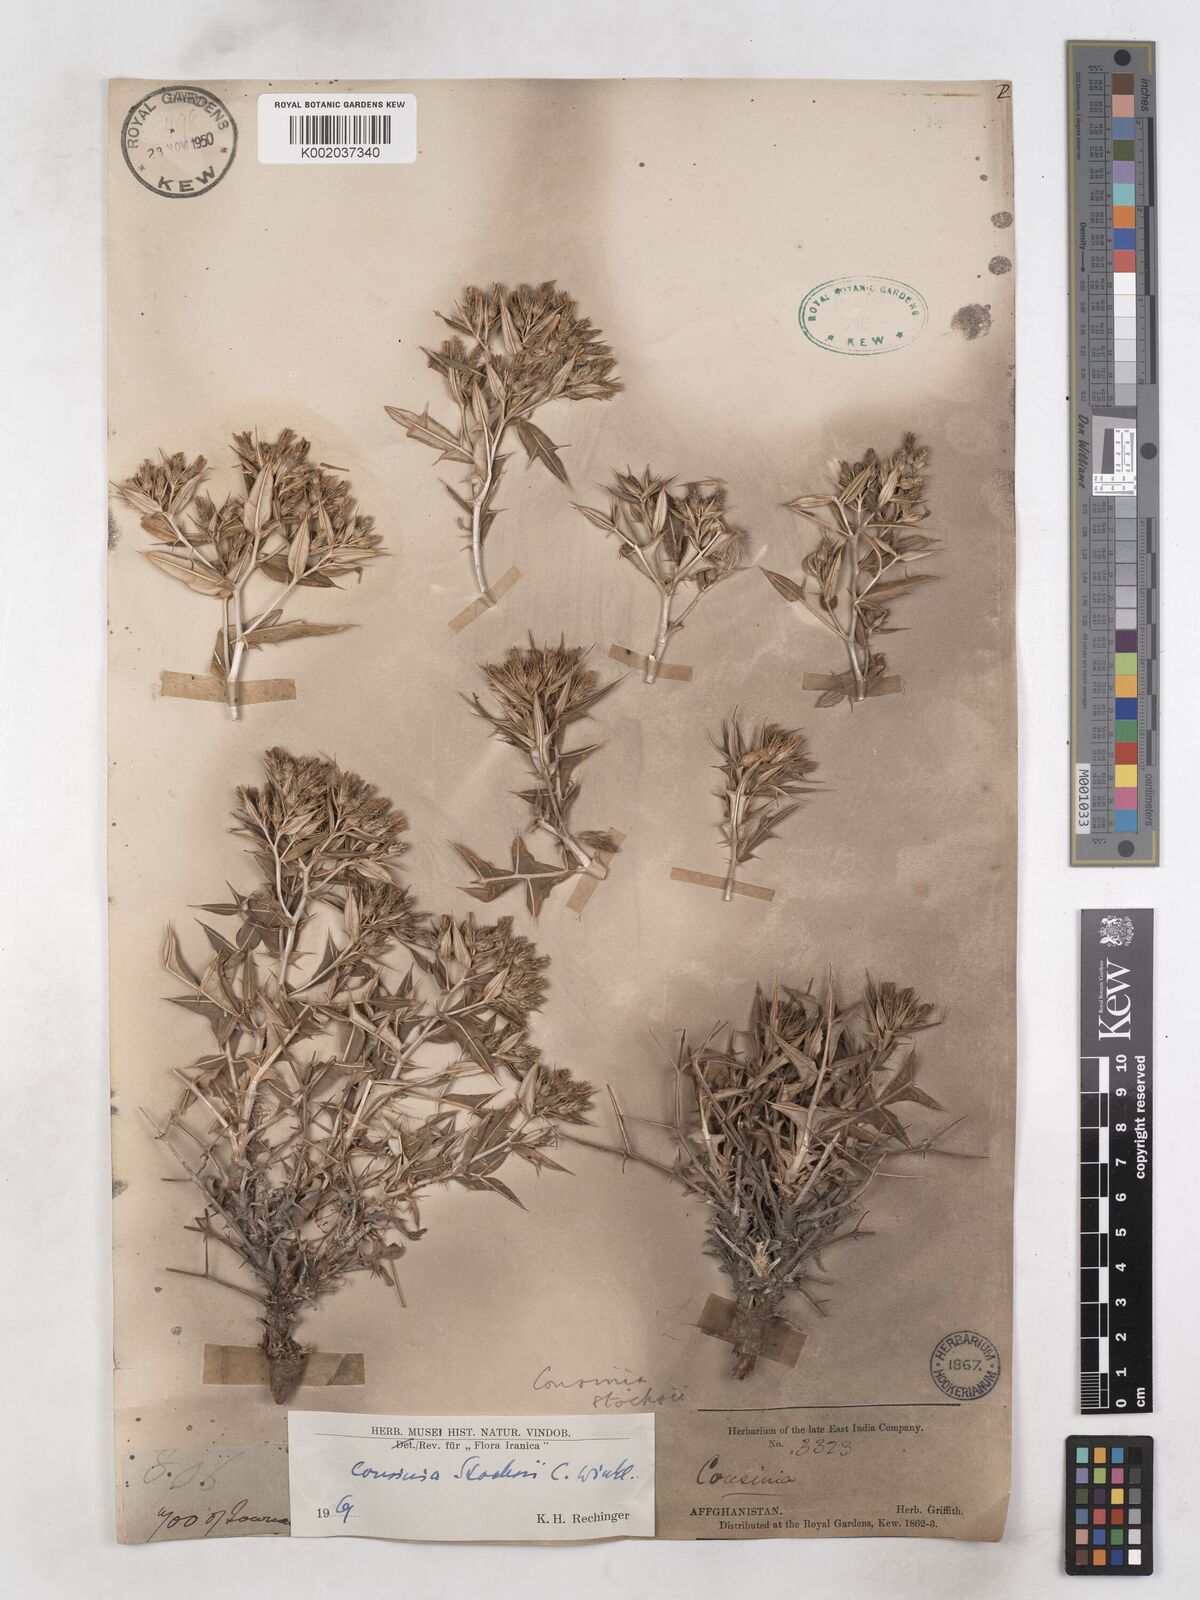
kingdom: Plantae
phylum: Tracheophyta
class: Magnoliopsida
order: Asterales
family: Asteraceae
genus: Cousinia
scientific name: Cousinia stocksii
